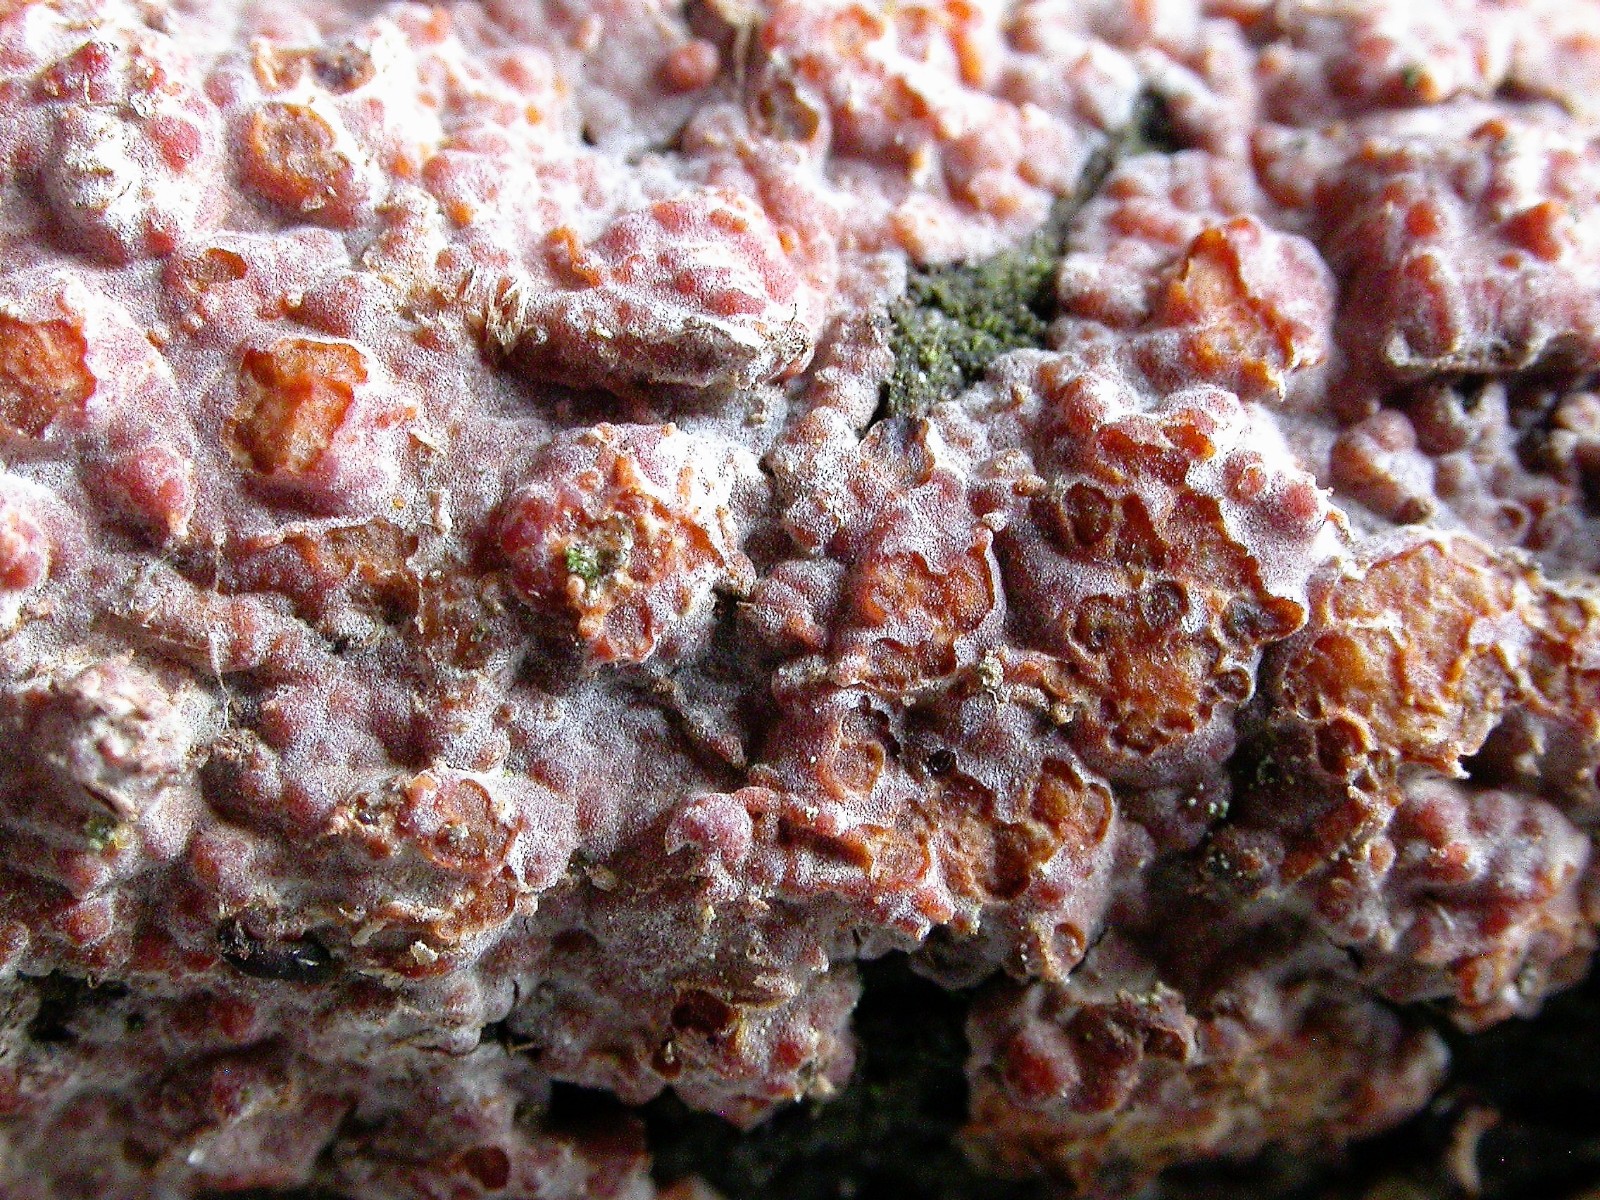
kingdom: Fungi
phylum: Basidiomycota
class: Agaricomycetes
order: Russulales
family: Peniophoraceae
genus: Peniophora
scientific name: Peniophora polygonia
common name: polygon-voksskind
